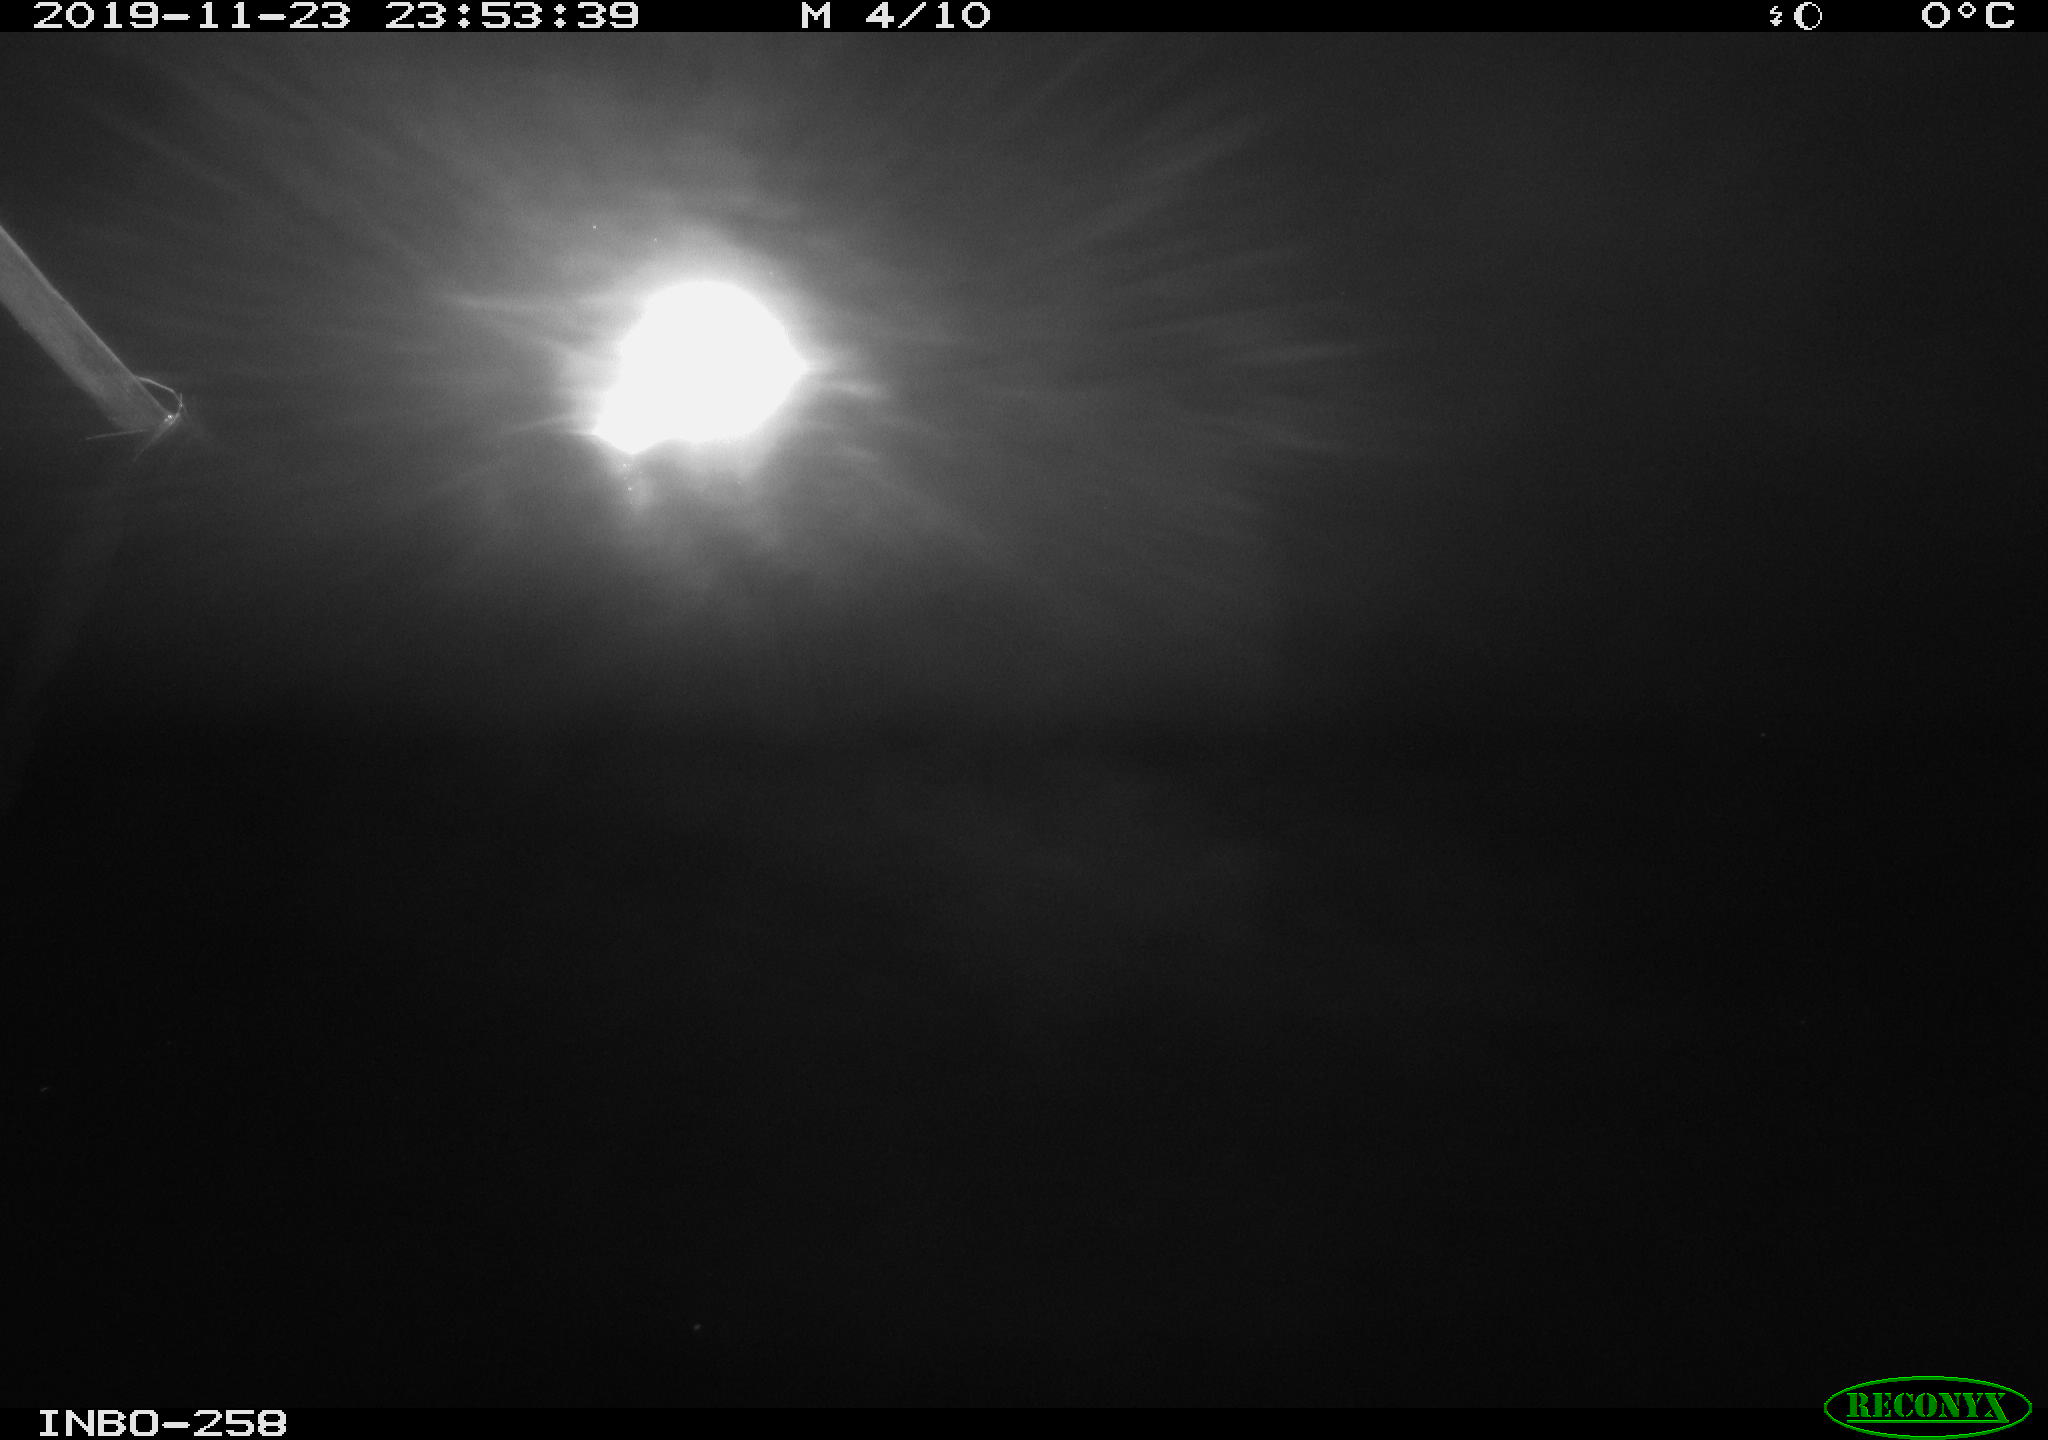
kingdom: Animalia
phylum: Chordata
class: Aves
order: Anseriformes
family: Anatidae
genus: Anas
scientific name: Anas platyrhynchos
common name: Mallard
